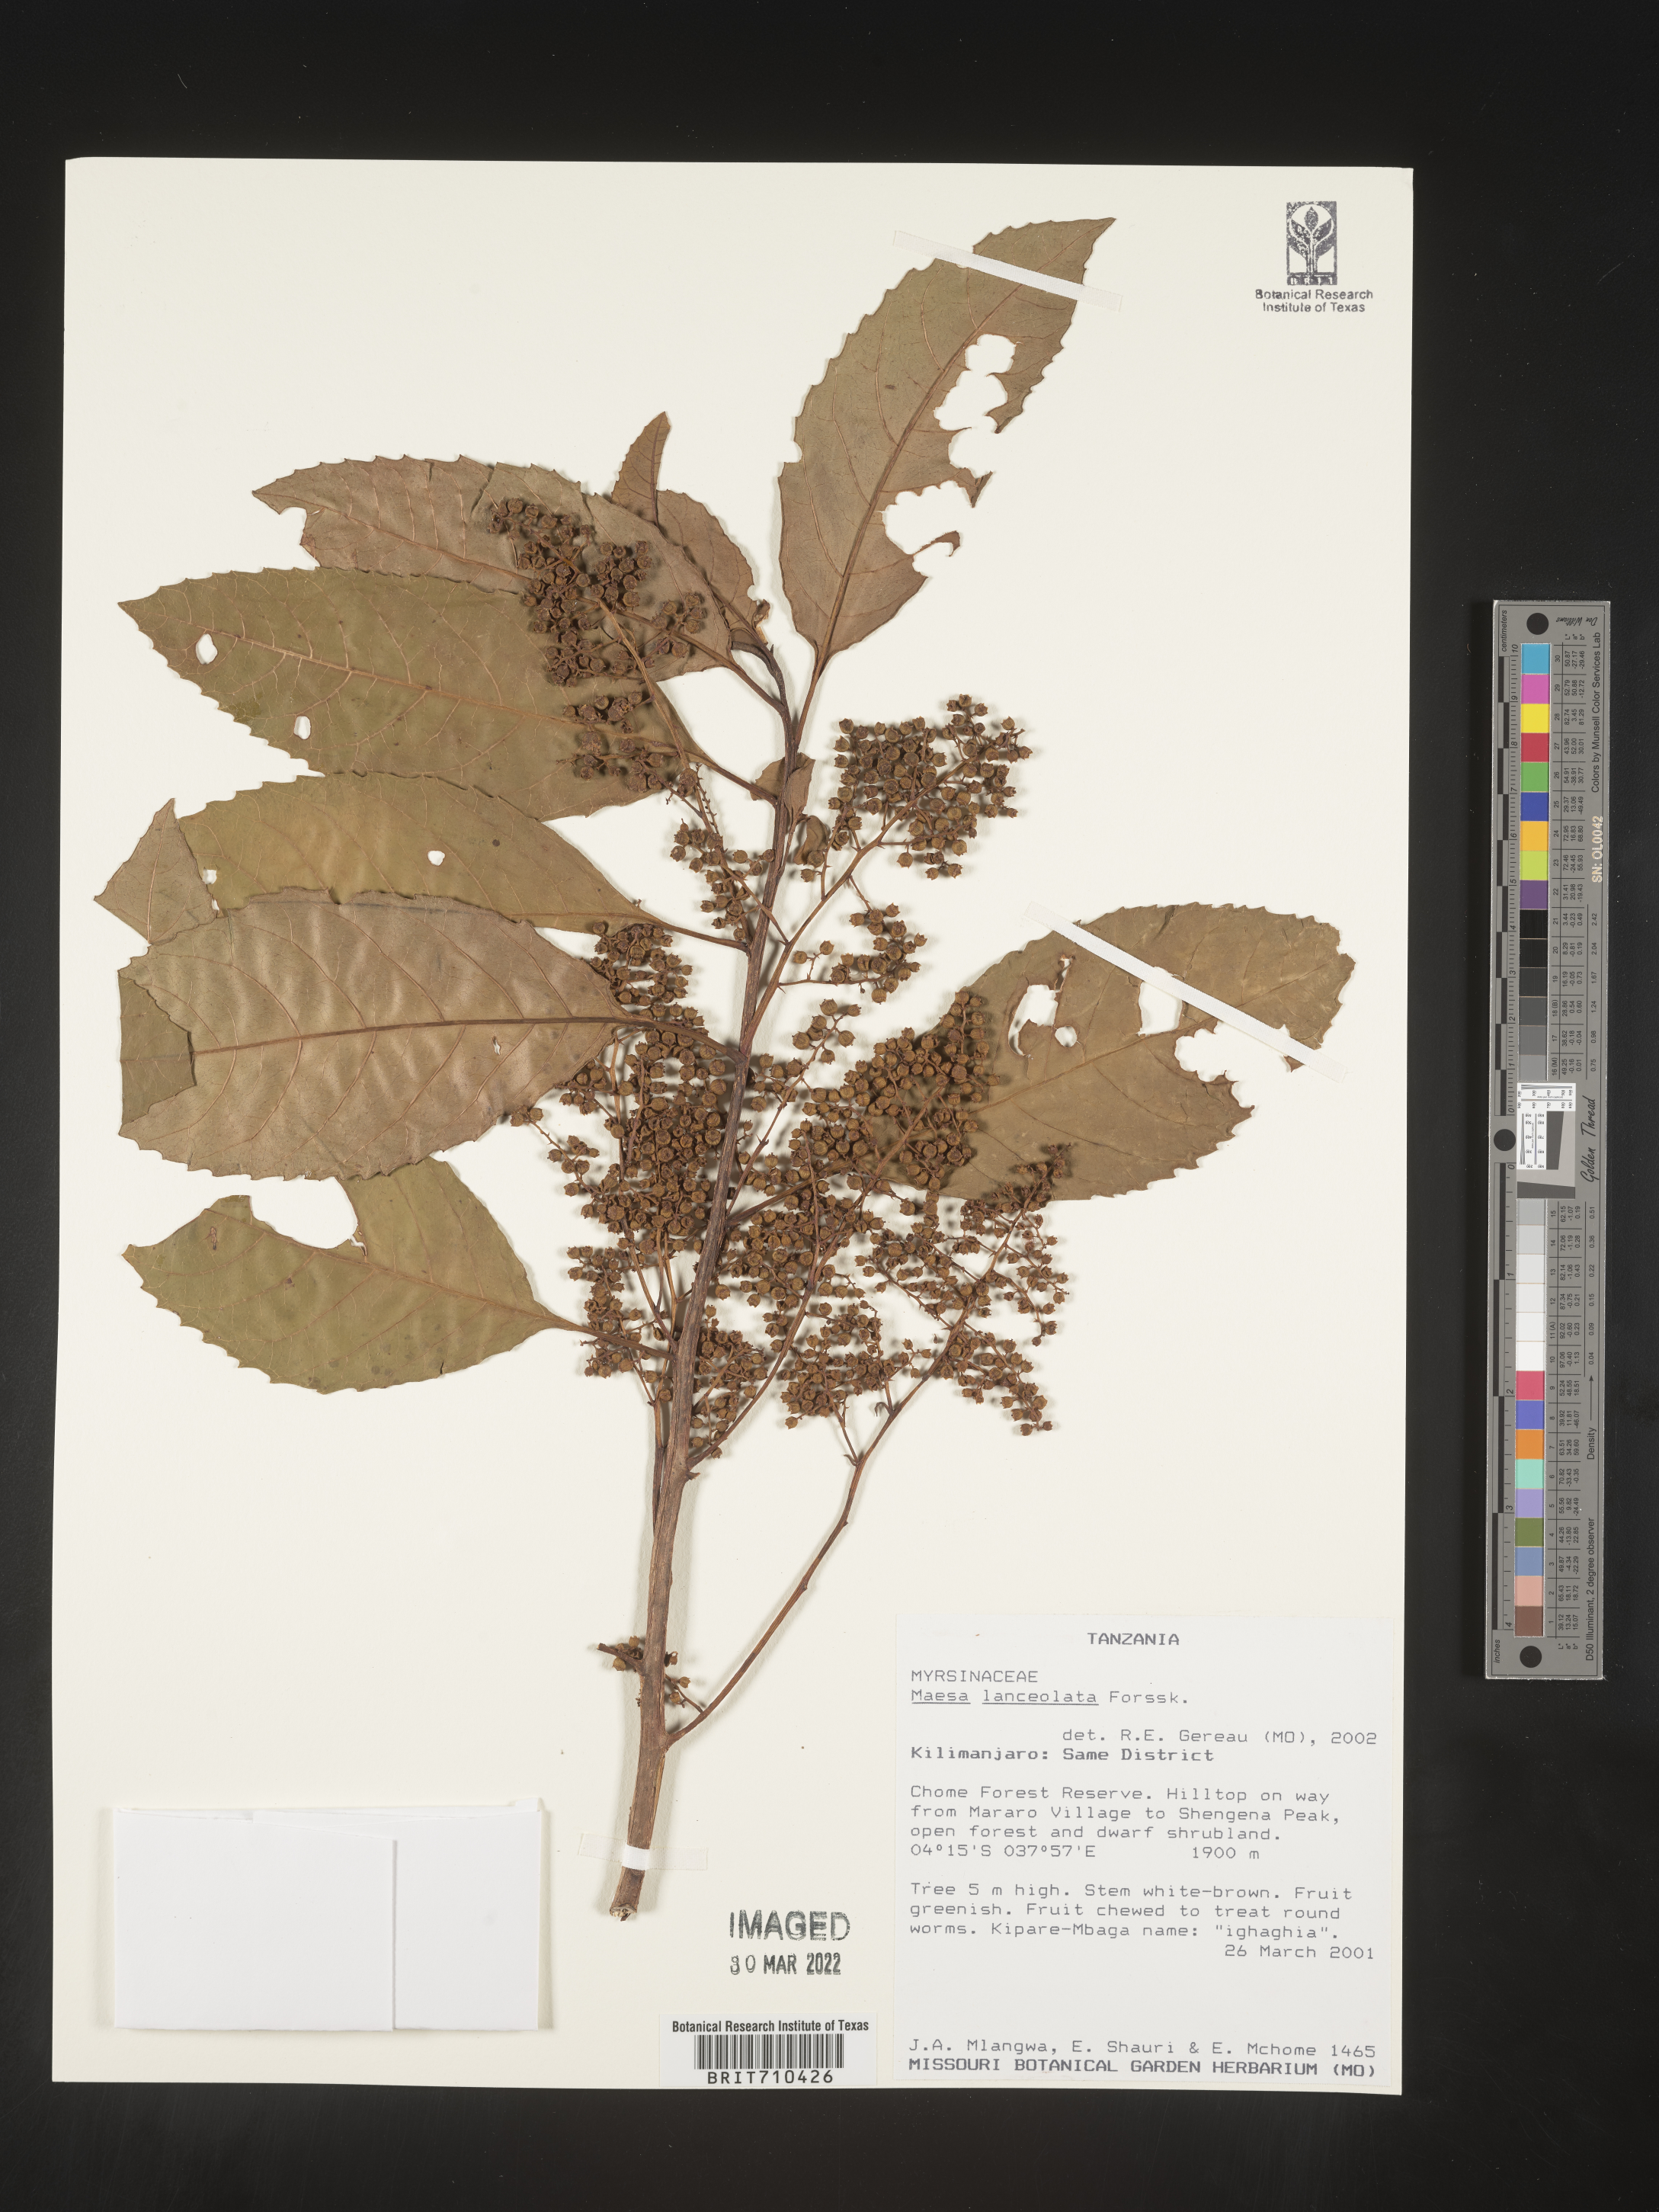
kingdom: Plantae
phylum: Tracheophyta
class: Magnoliopsida
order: Ericales
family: Primulaceae
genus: Maesa
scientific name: Maesa
